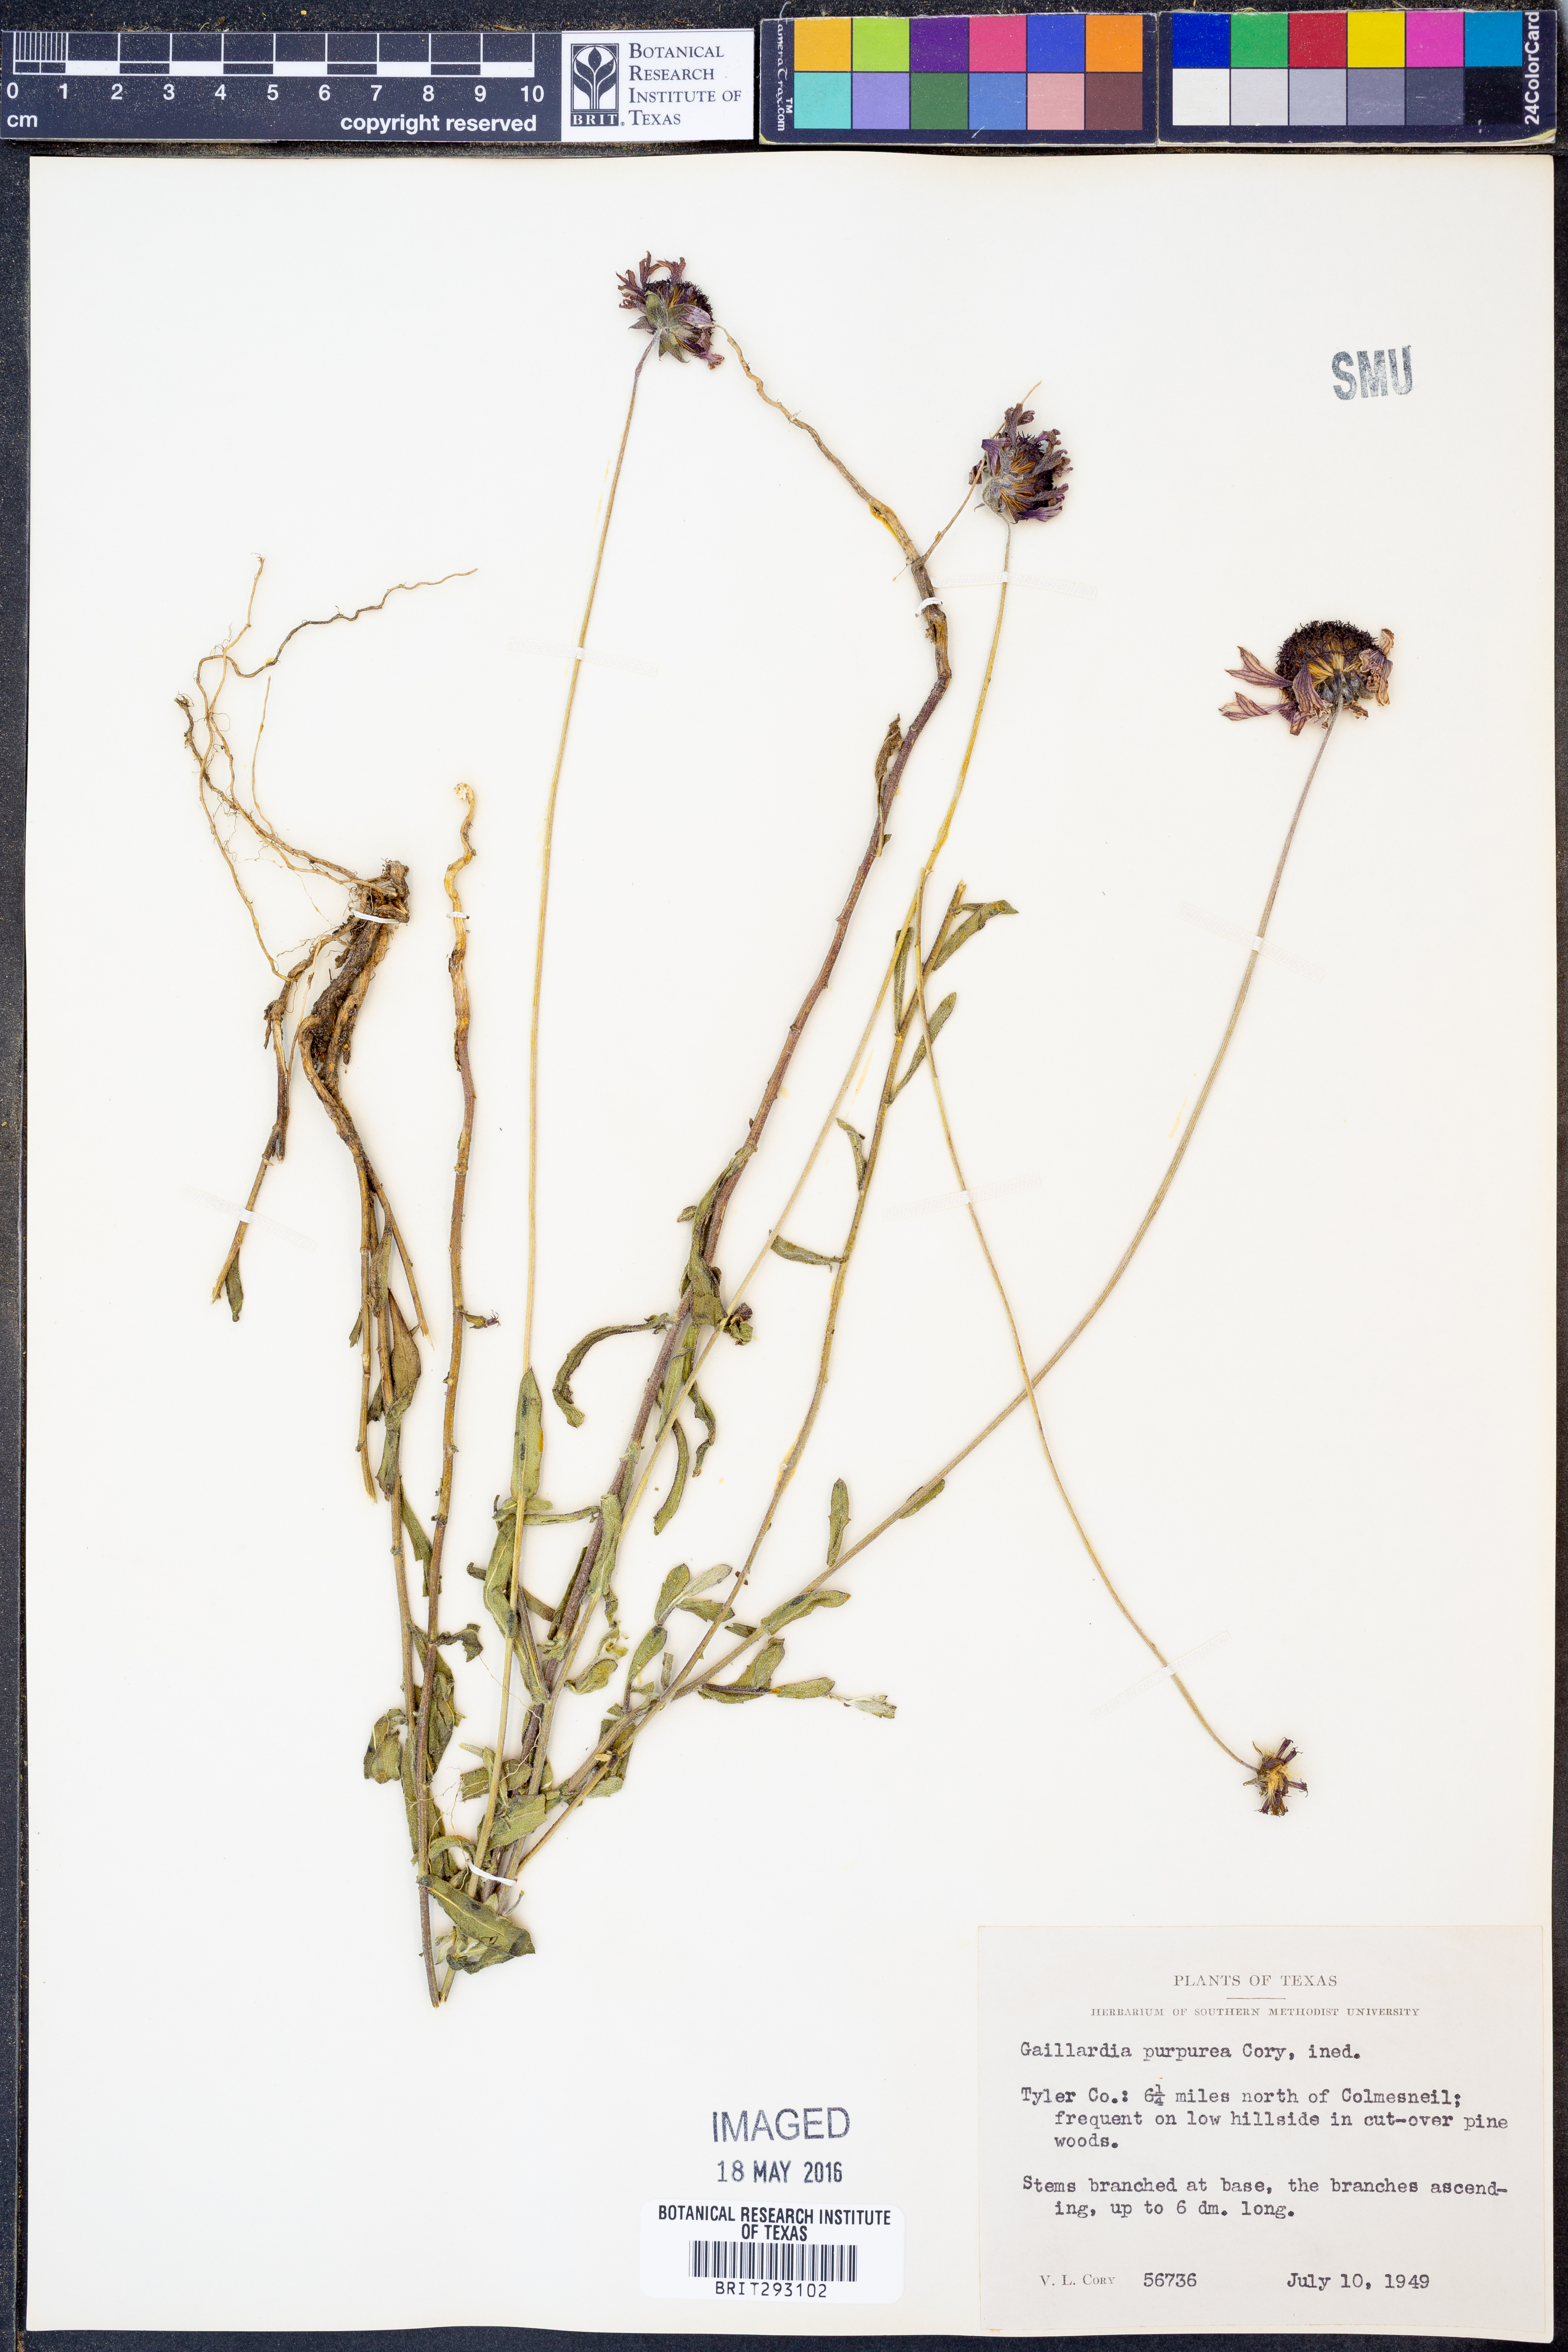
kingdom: Plantae
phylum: Tracheophyta
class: Magnoliopsida
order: Asterales
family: Asteraceae
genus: Gaillardia
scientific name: Gaillardia
